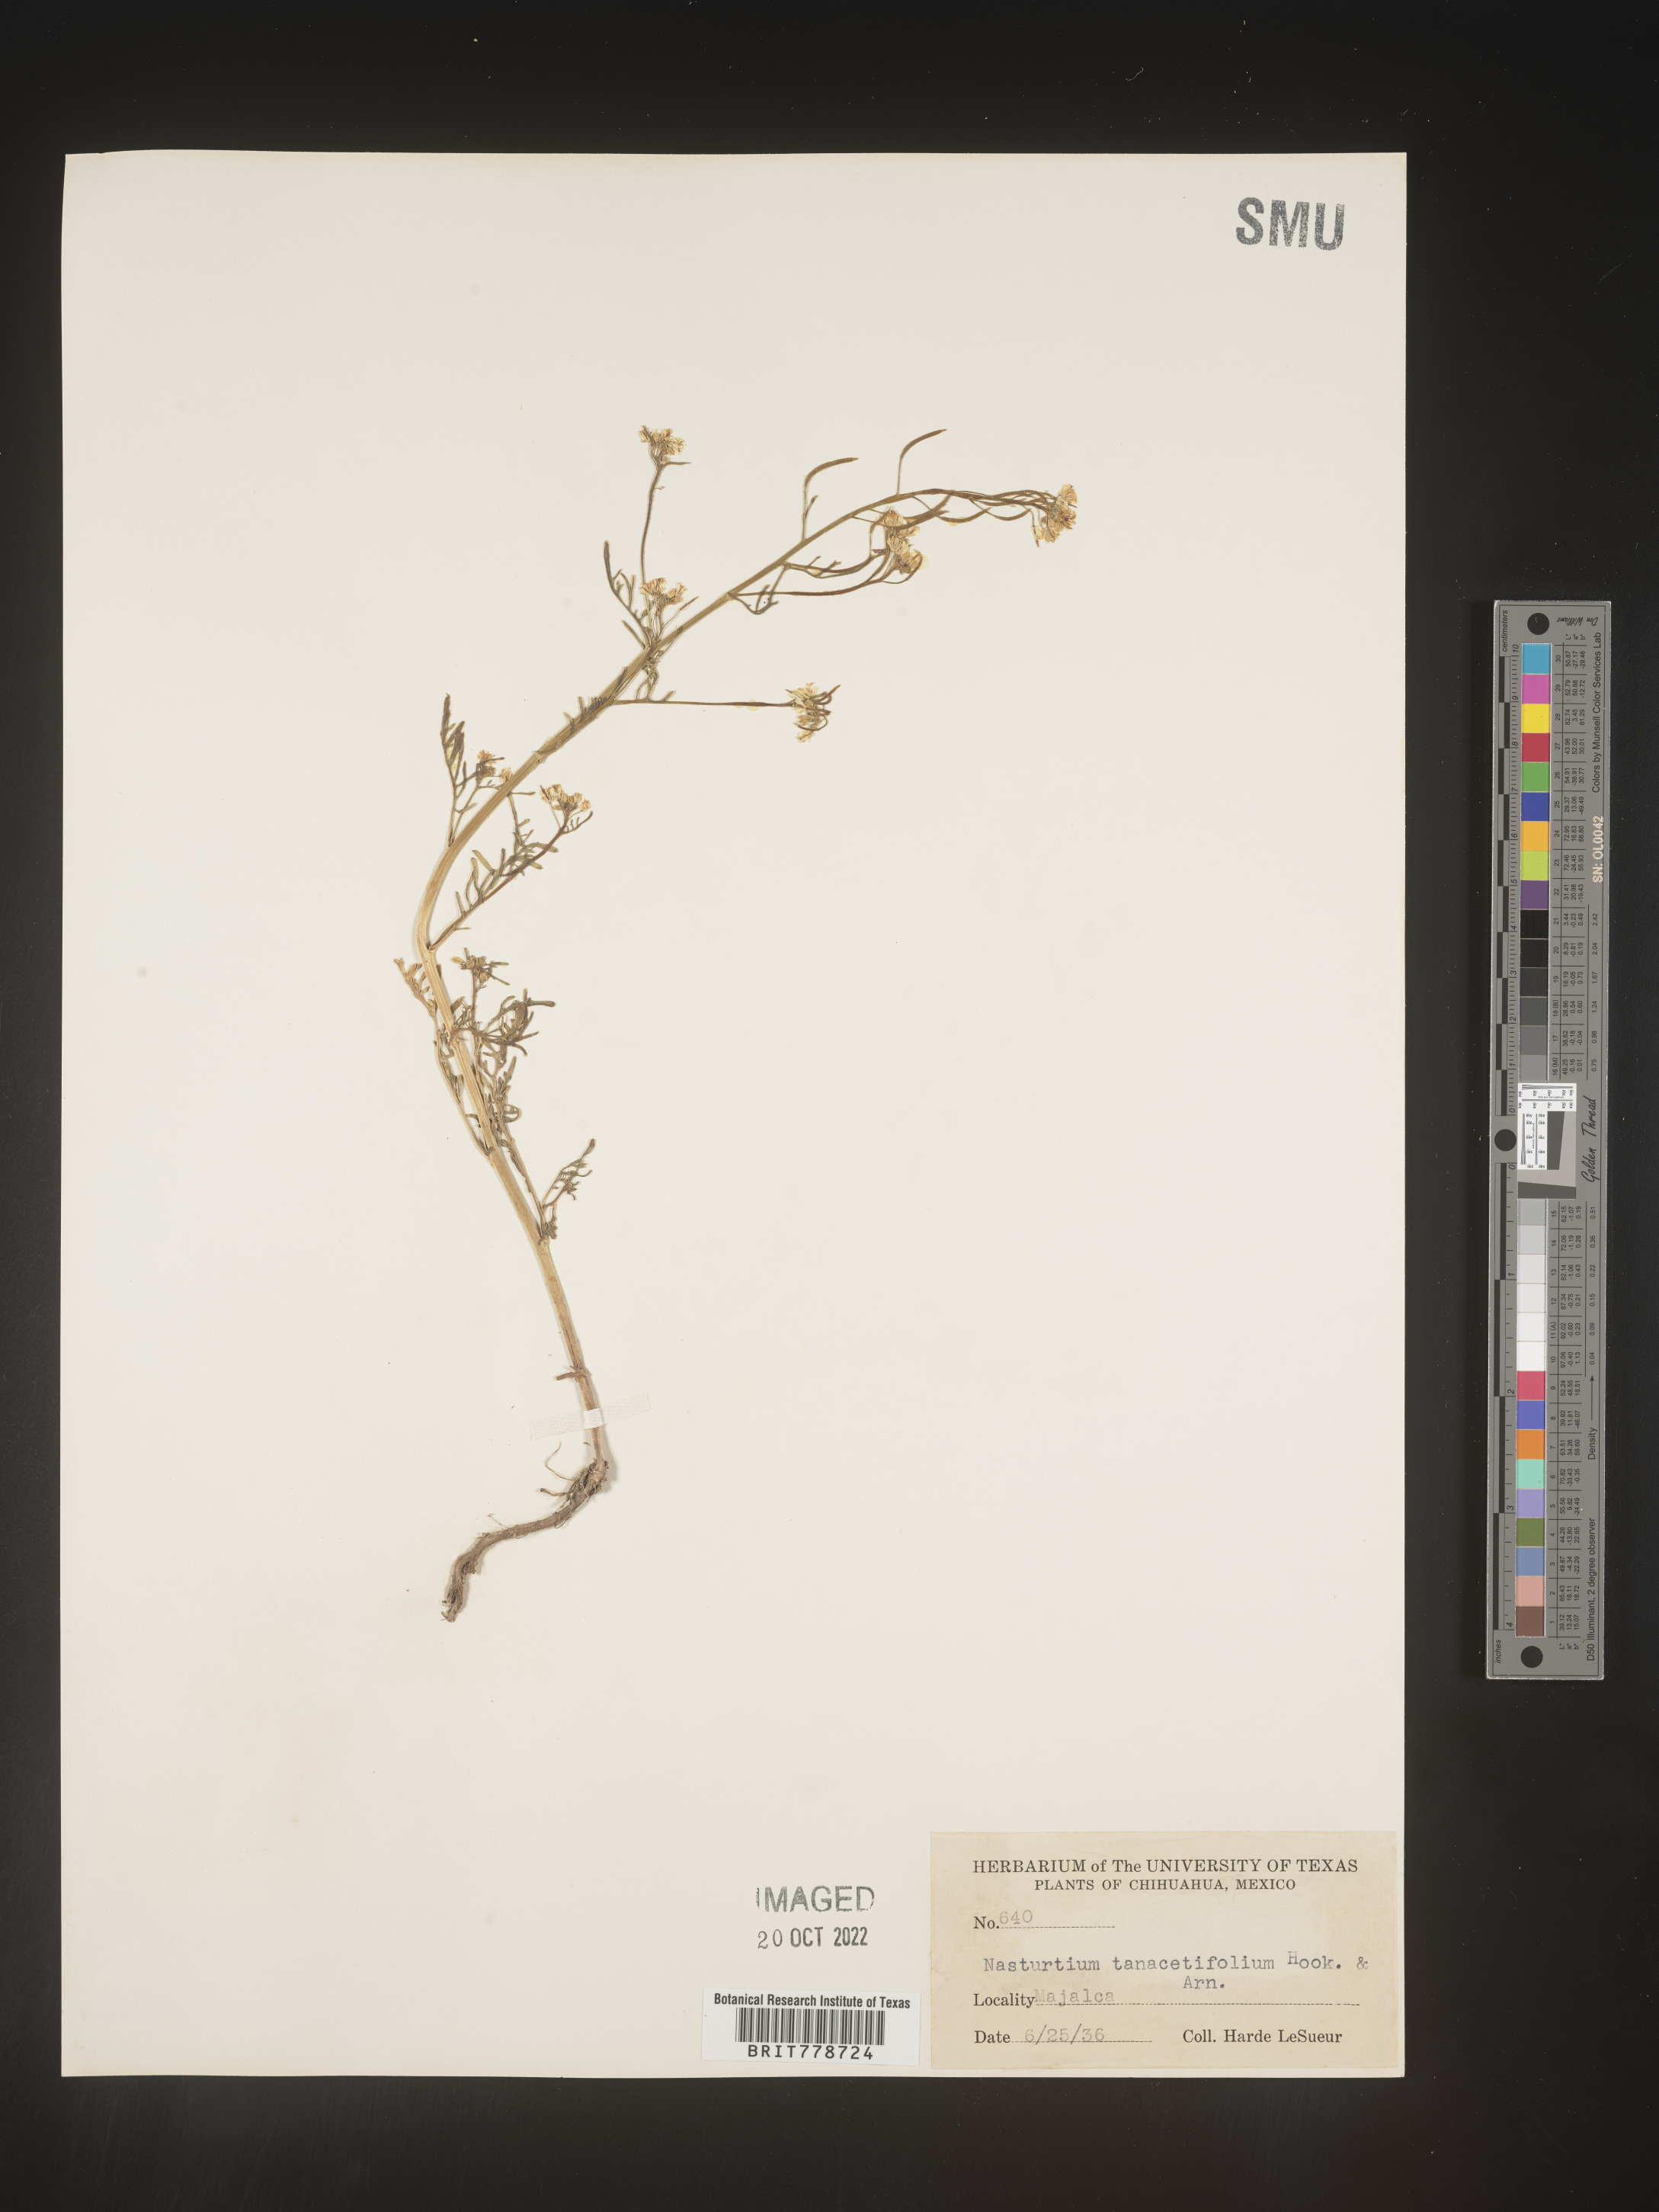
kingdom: Plantae
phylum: Tracheophyta
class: Magnoliopsida
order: Brassicales
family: Brassicaceae
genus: Rorippa
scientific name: Rorippa
